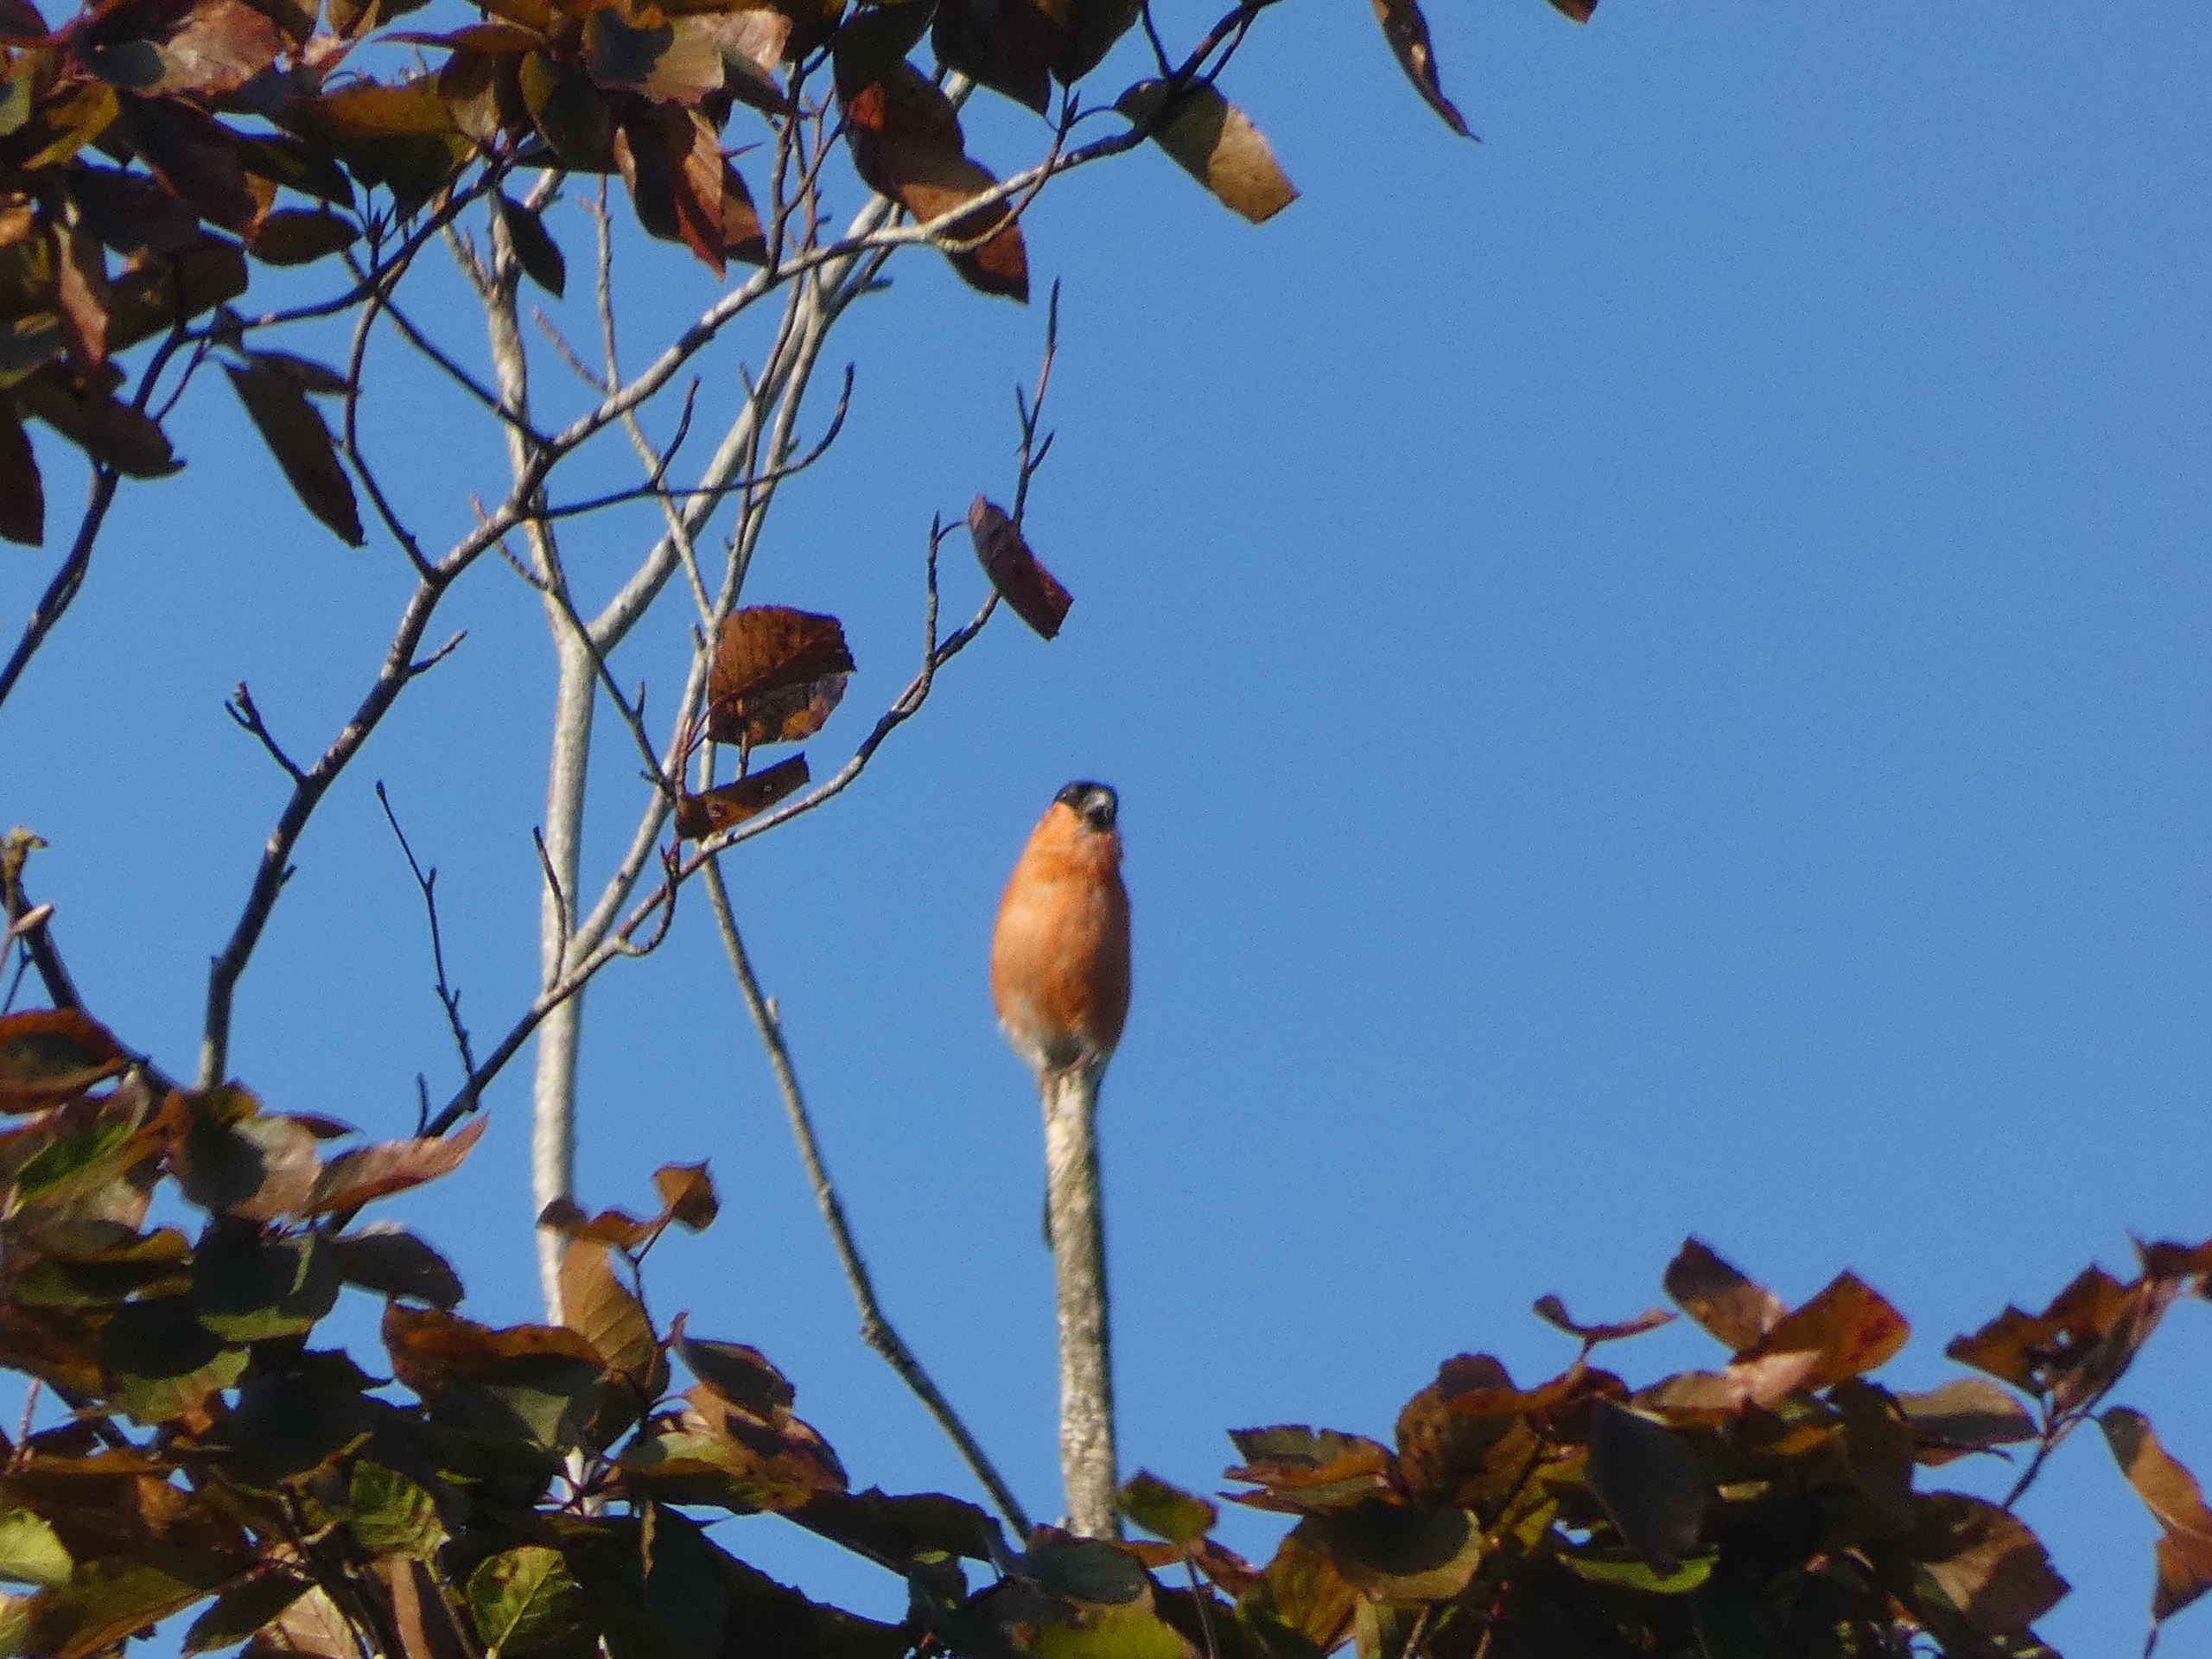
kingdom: Animalia
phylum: Chordata
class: Aves
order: Passeriformes
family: Fringillidae
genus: Pyrrhula
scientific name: Pyrrhula pyrrhula
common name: Dompap
